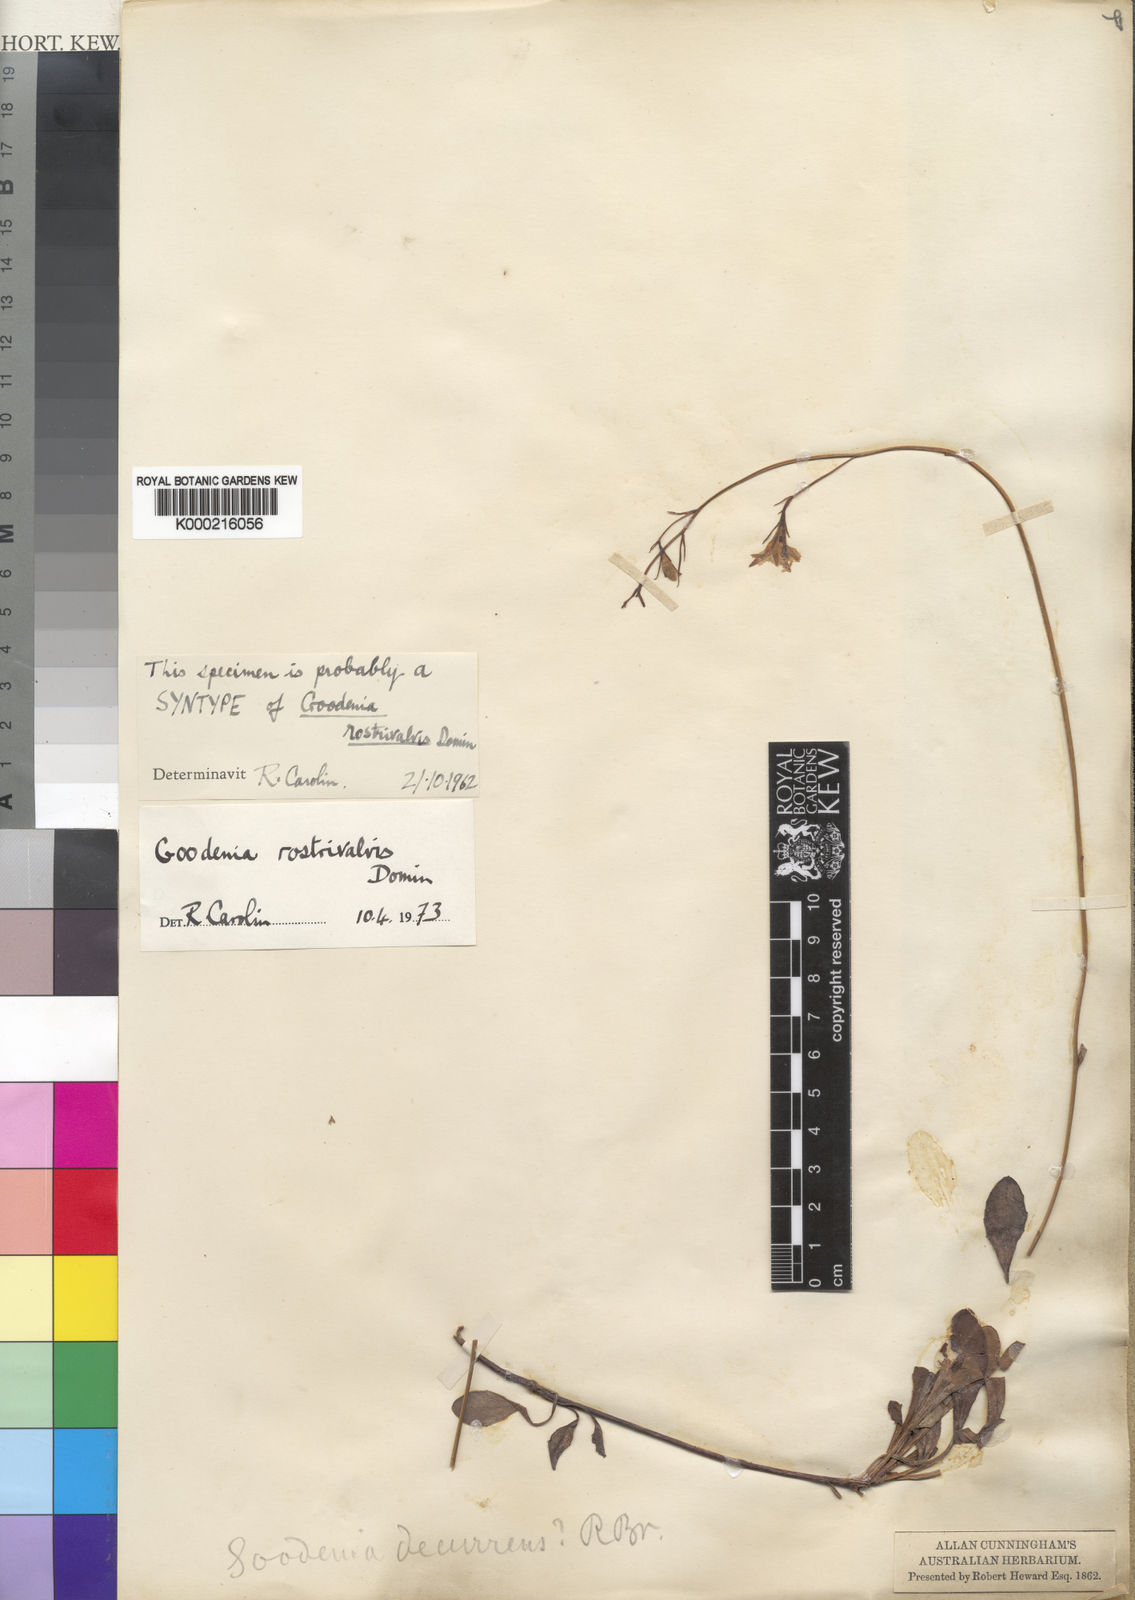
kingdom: Plantae
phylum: Tracheophyta
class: Magnoliopsida
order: Asterales
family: Goodeniaceae
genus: Goodenia
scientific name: Goodenia rostrivalvis
